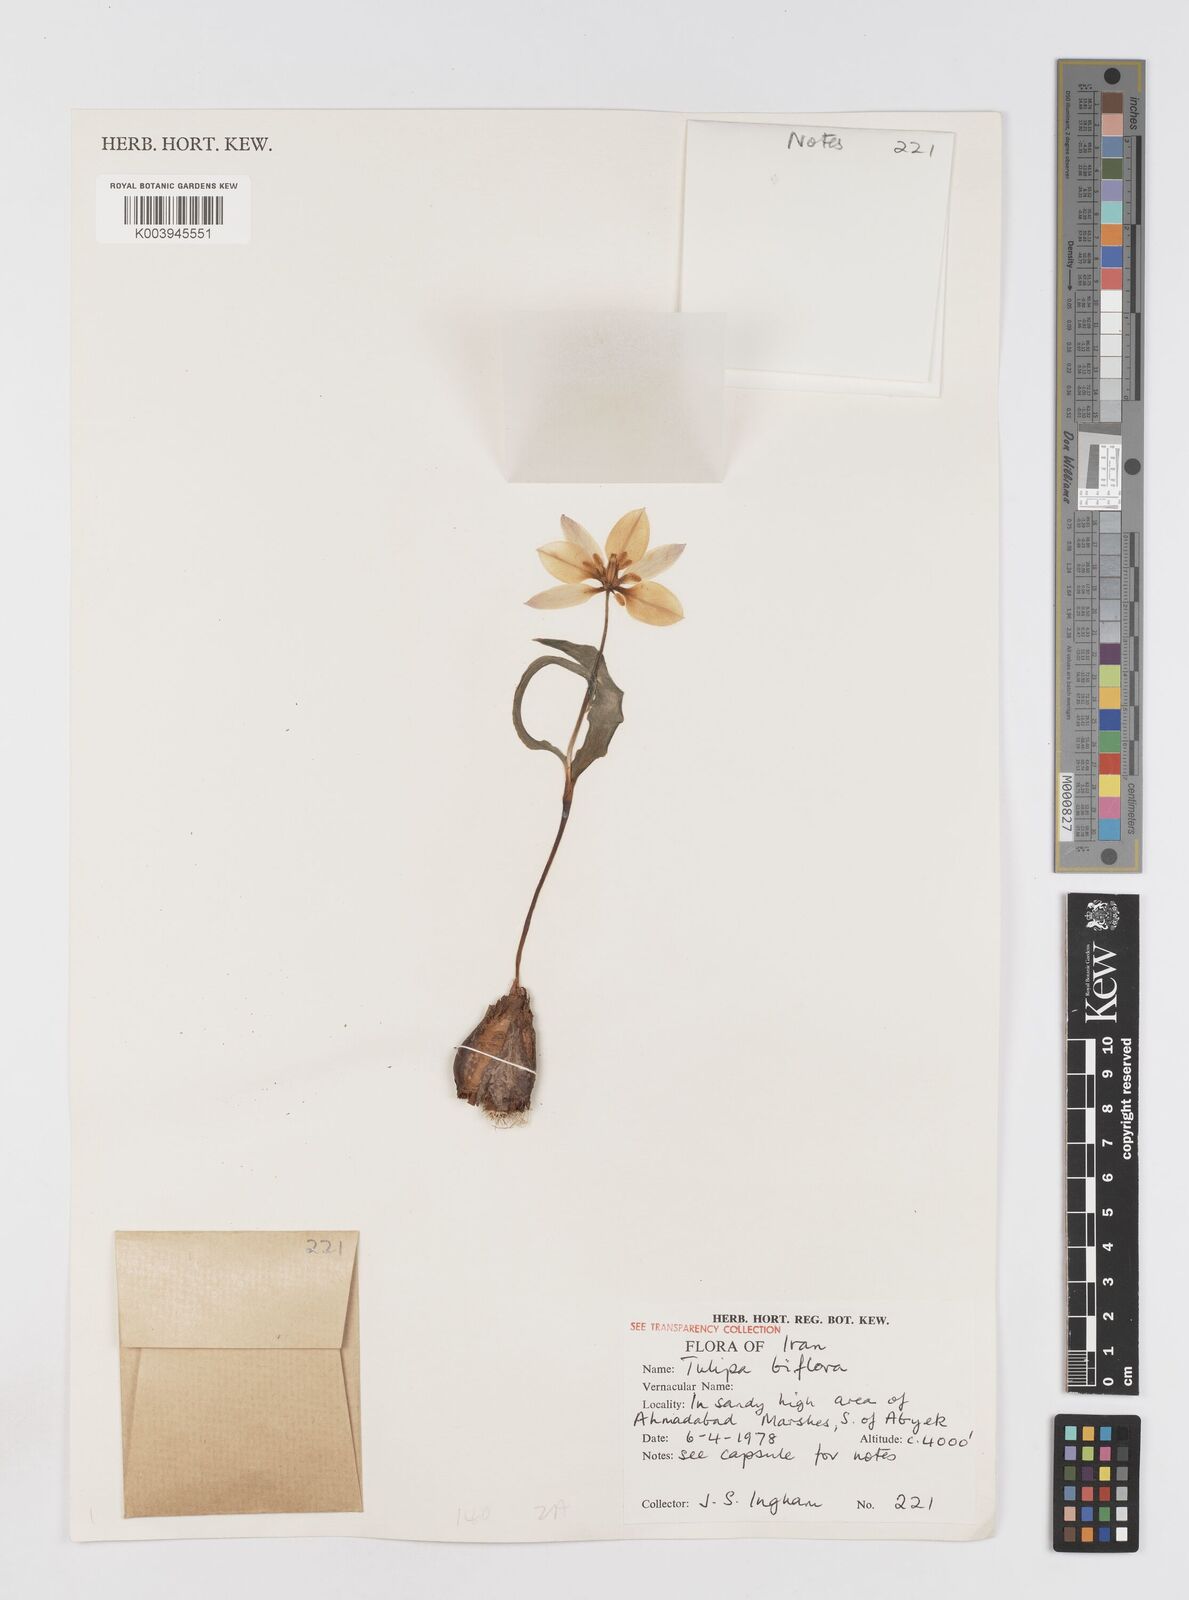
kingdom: Plantae
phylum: Tracheophyta
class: Liliopsida
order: Liliales
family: Liliaceae
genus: Tulipa
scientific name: Tulipa biflora
